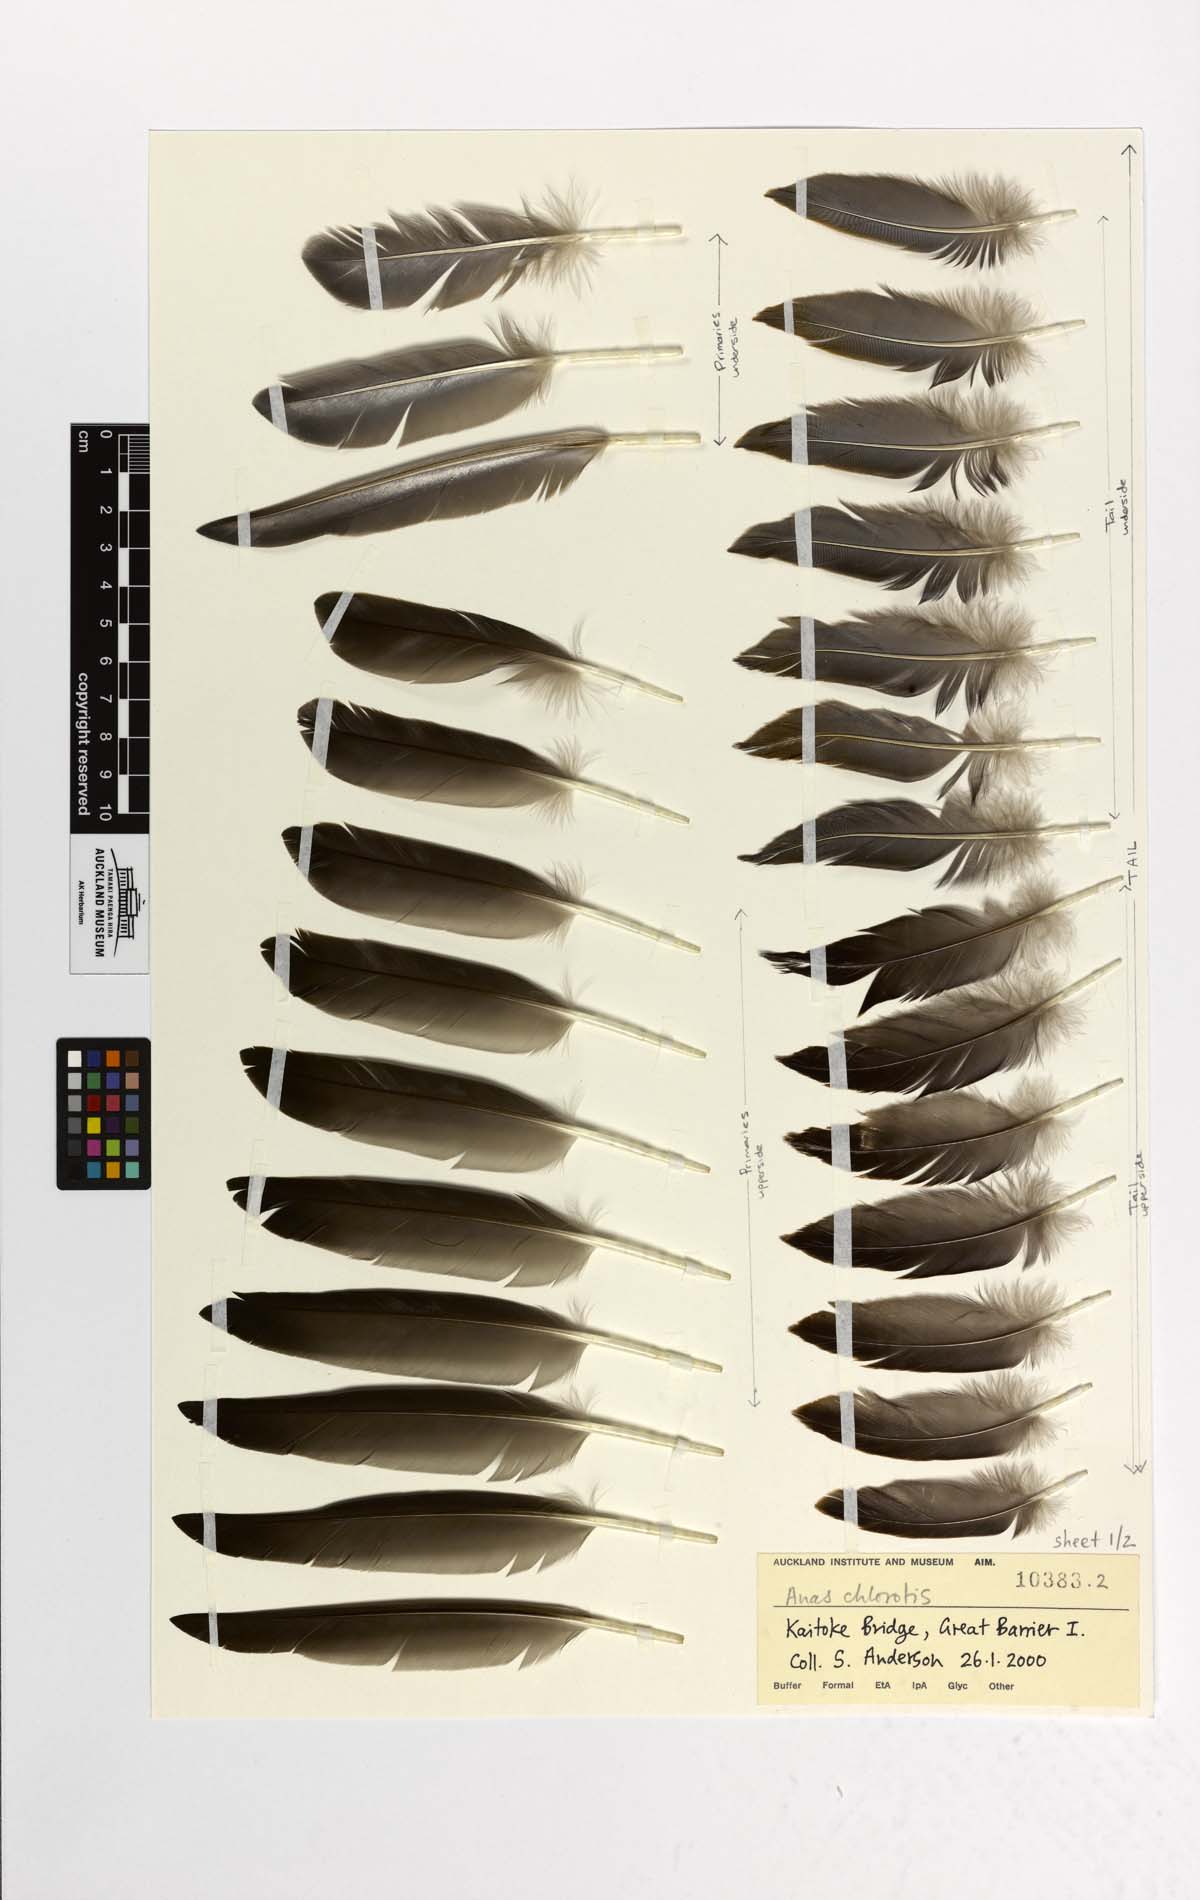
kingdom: Animalia
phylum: Chordata
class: Aves
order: Anseriformes
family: Anatidae
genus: Anas
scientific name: Anas chlorotis
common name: Brown teal
